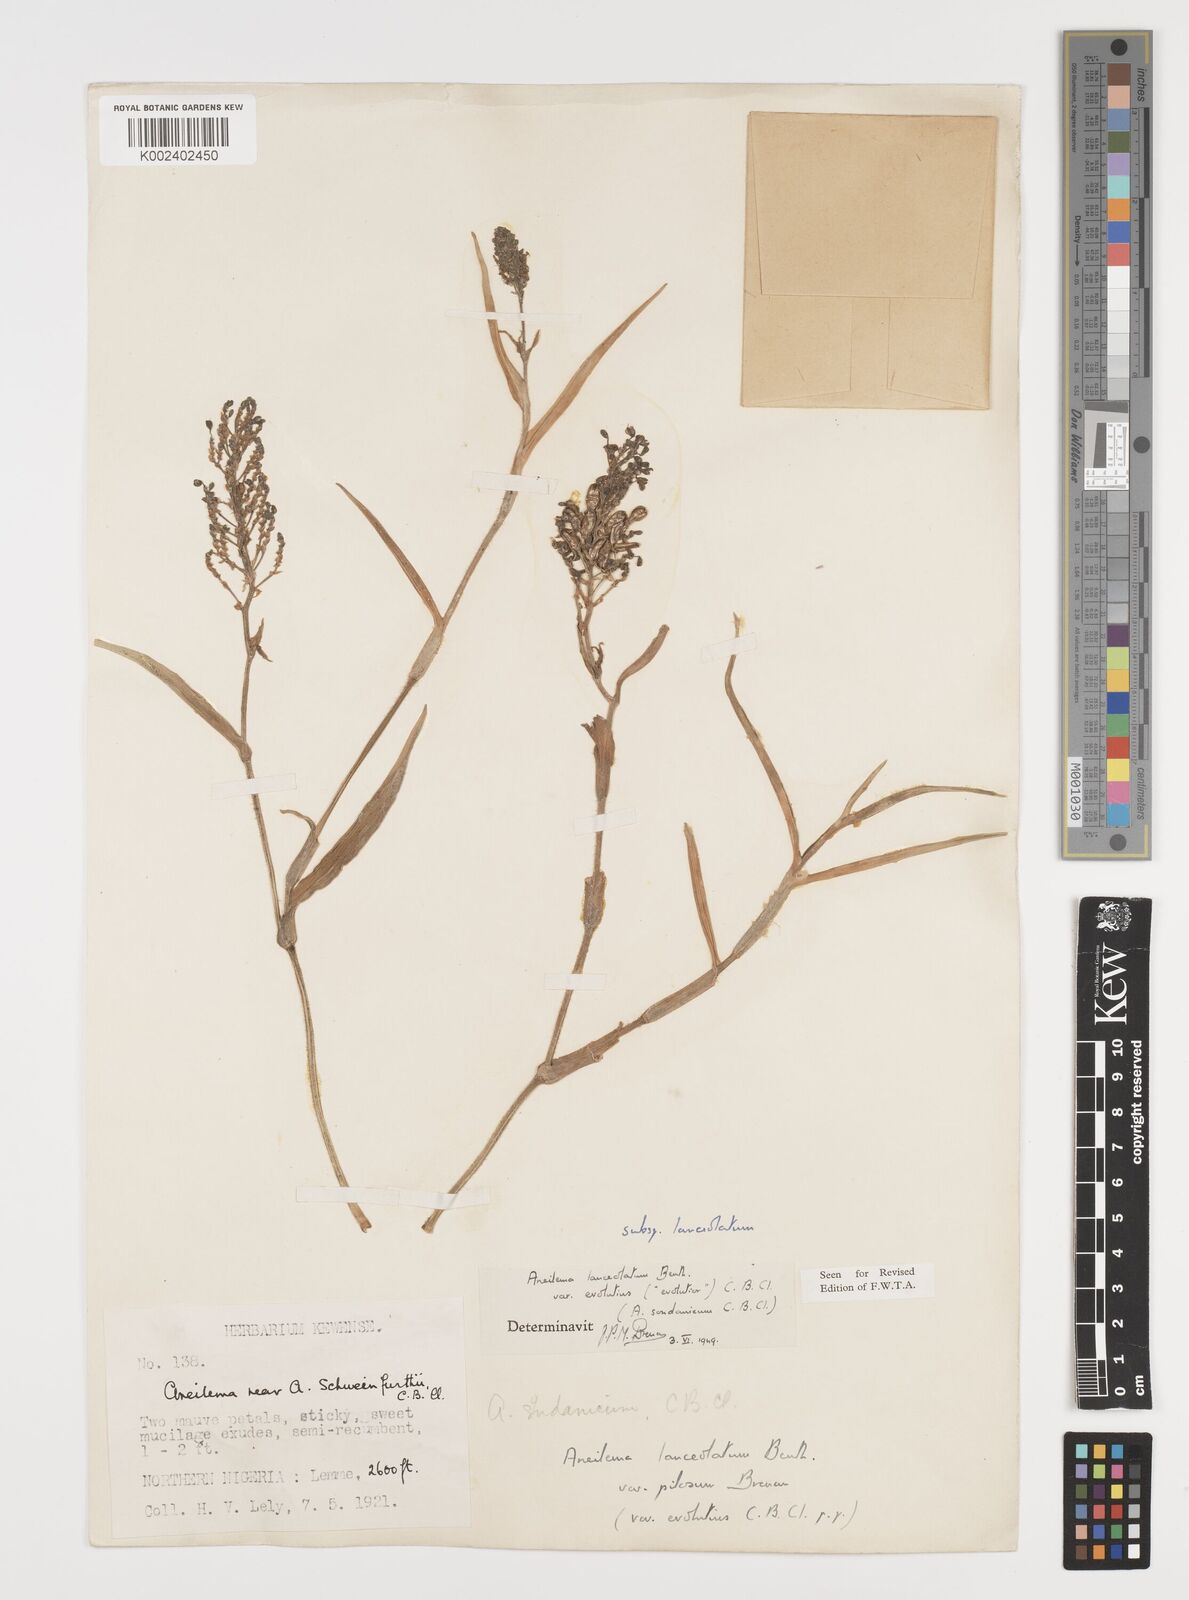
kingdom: Plantae
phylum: Tracheophyta
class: Liliopsida
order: Commelinales
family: Commelinaceae
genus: Aneilema
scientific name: Aneilema lanceolatum
